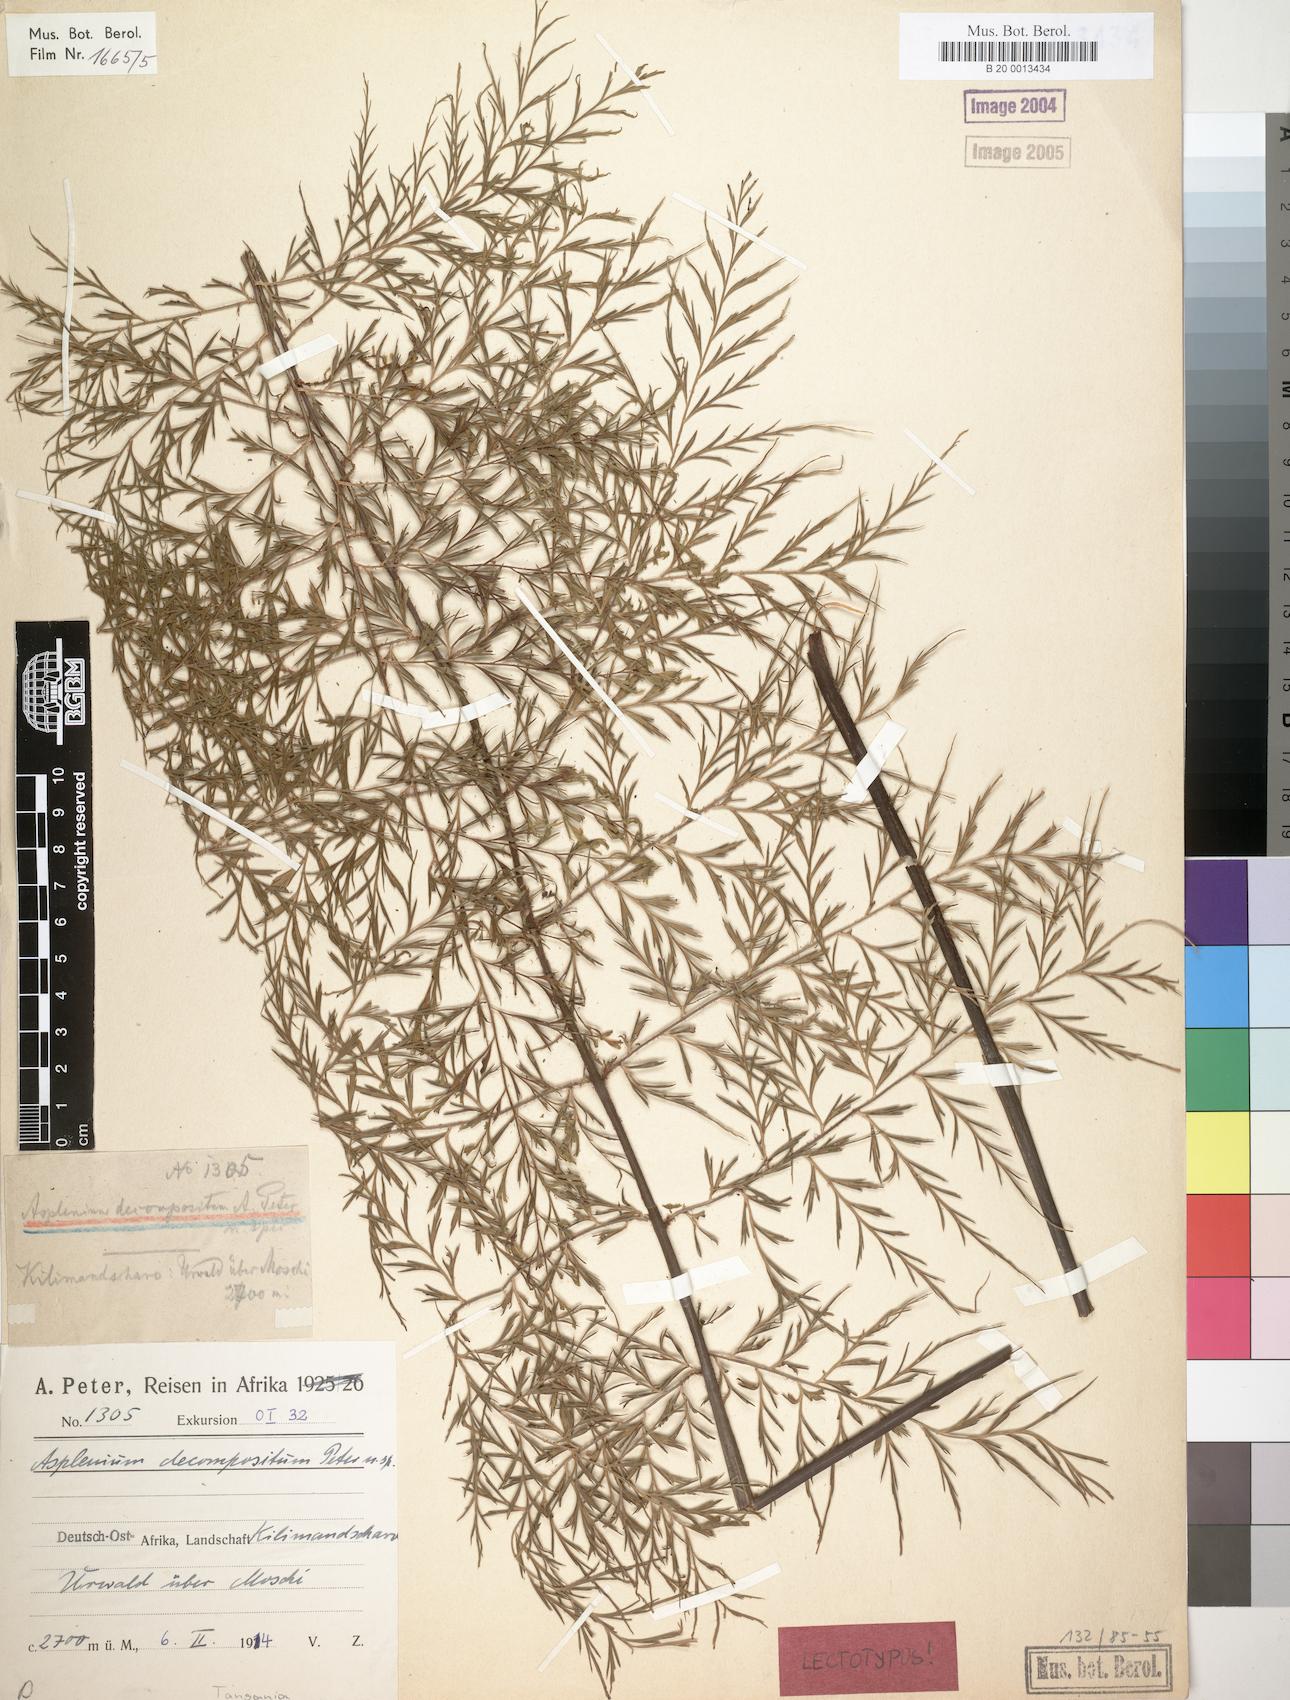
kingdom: Plantae
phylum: Tracheophyta
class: Polypodiopsida
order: Polypodiales
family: Aspleniaceae
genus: Asplenium
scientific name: Asplenium linckii
